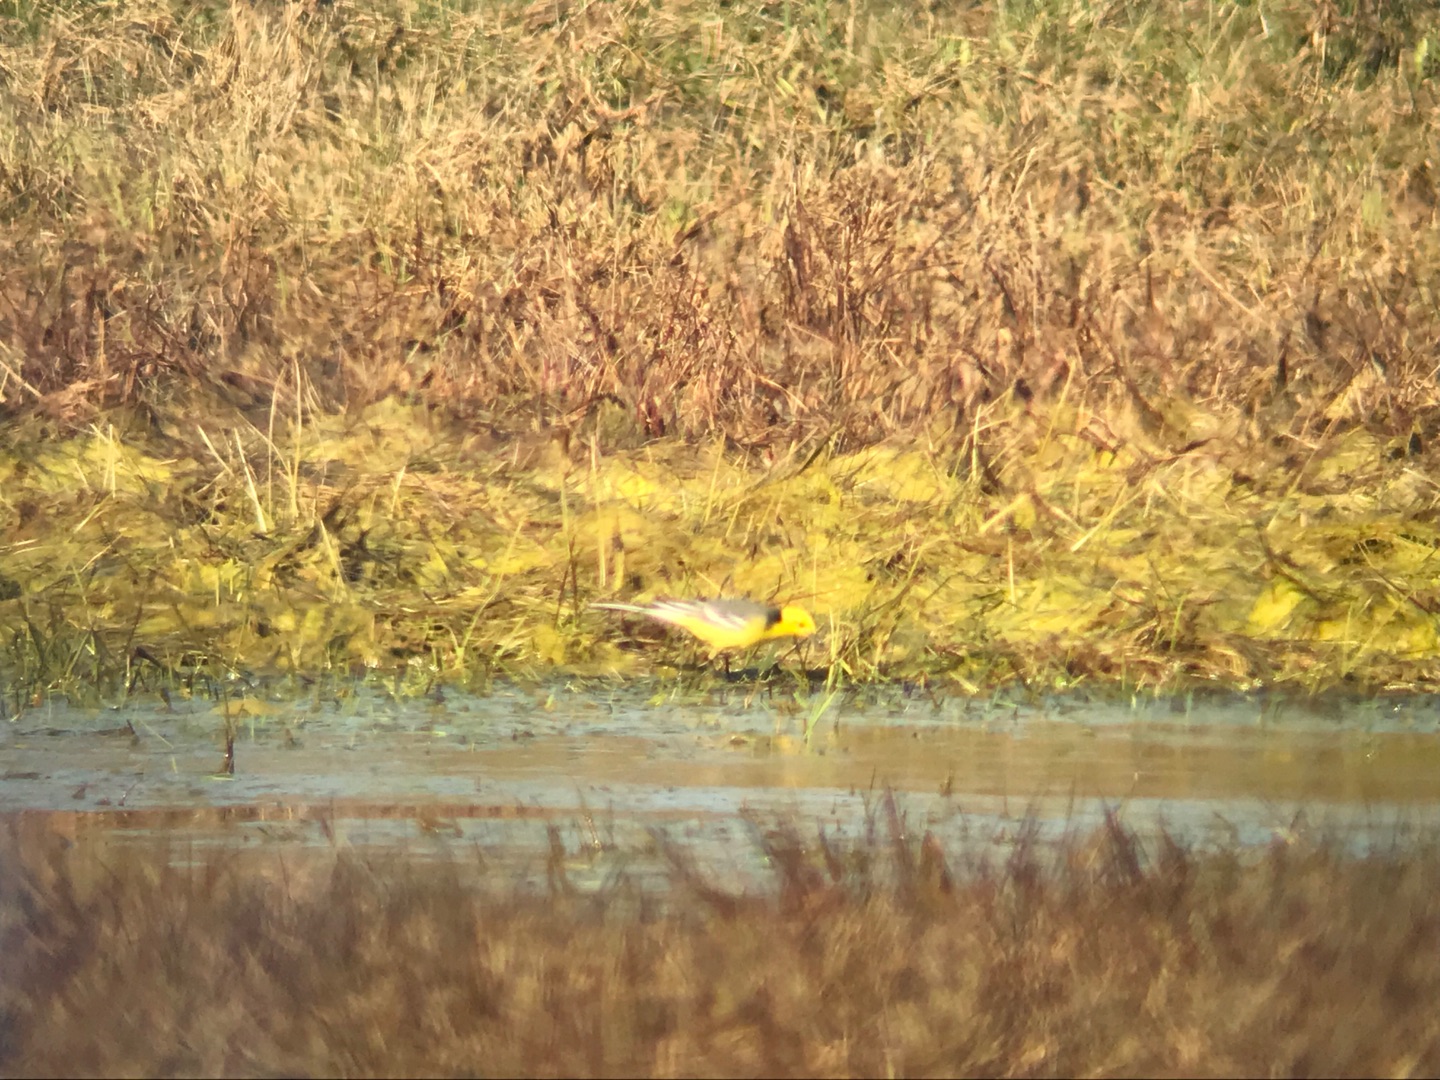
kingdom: Animalia
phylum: Chordata
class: Aves
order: Passeriformes
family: Motacillidae
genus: Motacilla
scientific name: Motacilla citreola
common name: Citronvipstjert
